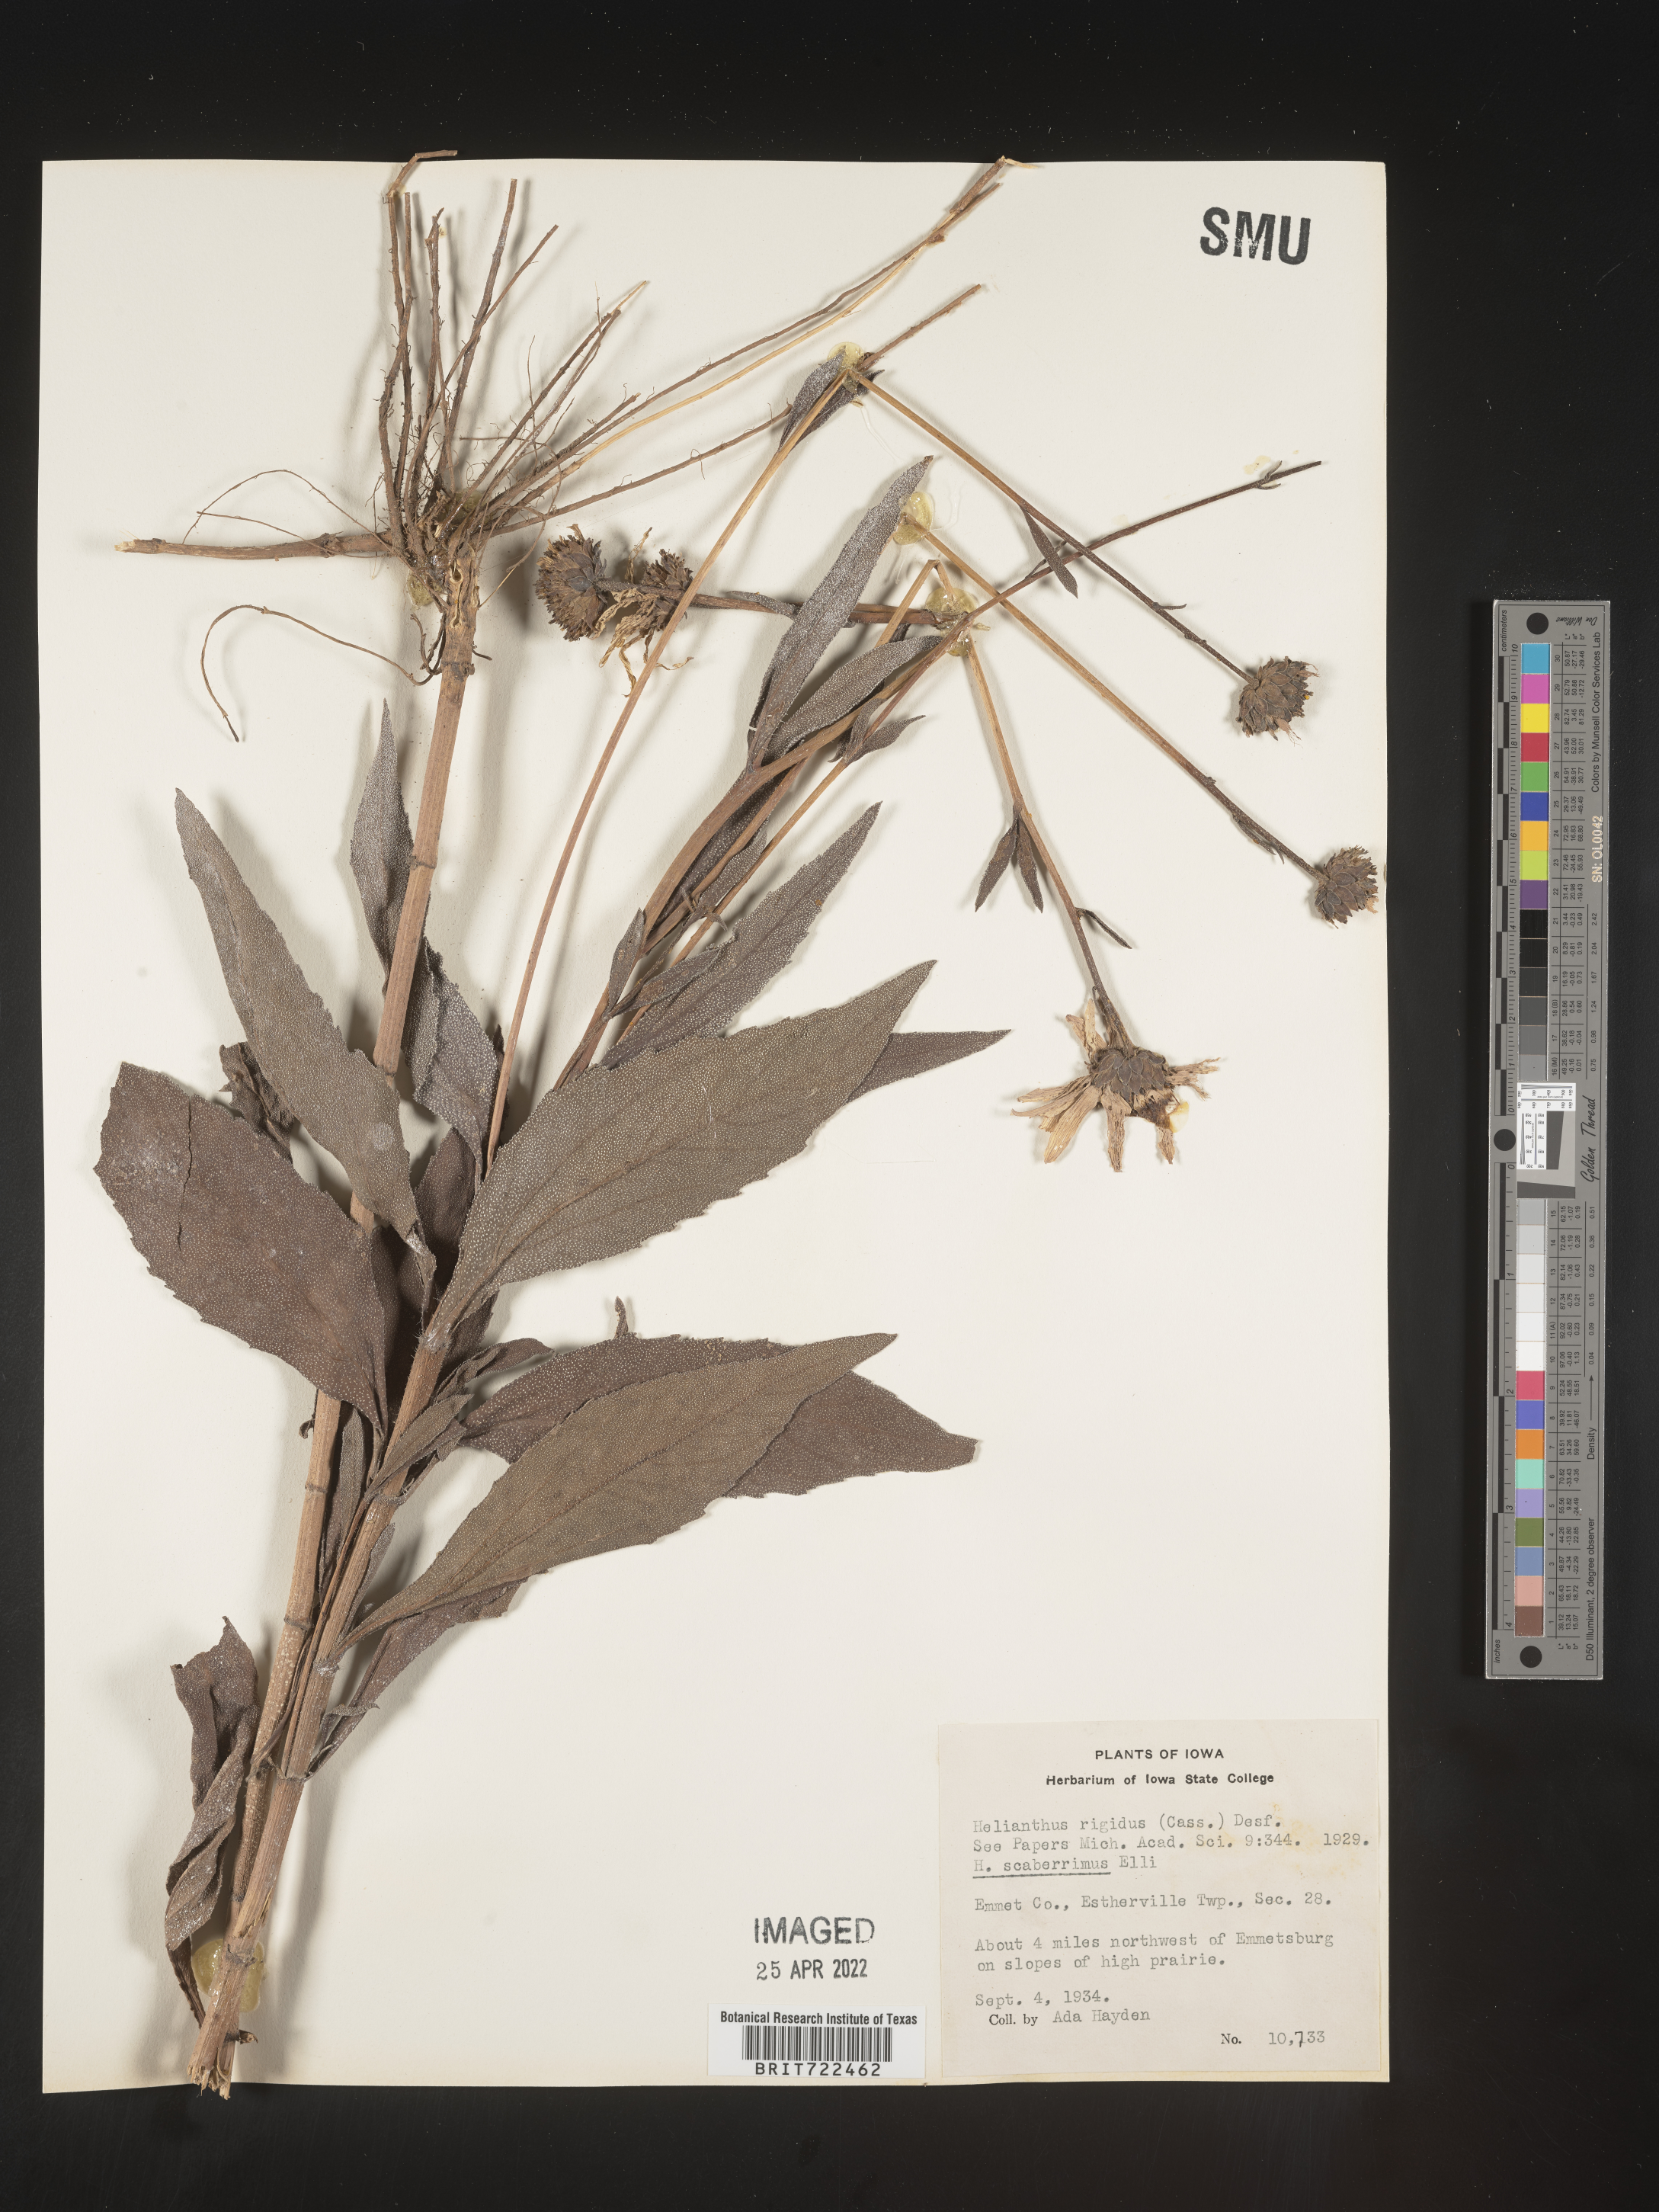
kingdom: Plantae
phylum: Tracheophyta
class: Magnoliopsida
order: Asterales
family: Asteraceae
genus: Helianthus
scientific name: Helianthus laetiflorus
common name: Perennial sunflower
